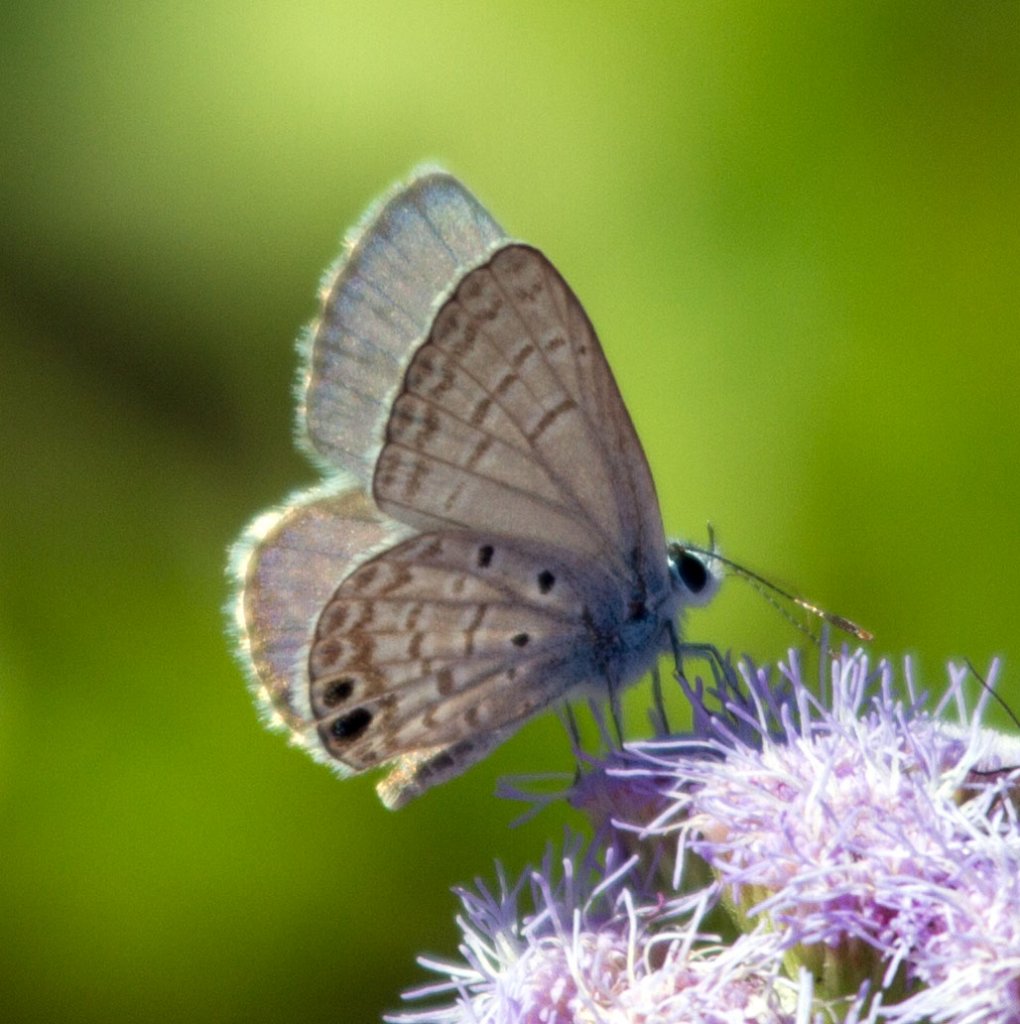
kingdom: Animalia
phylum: Arthropoda
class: Insecta
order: Lepidoptera
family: Lycaenidae
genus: Hemiargus
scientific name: Hemiargus ceraunus
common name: Ceraunus Blue
